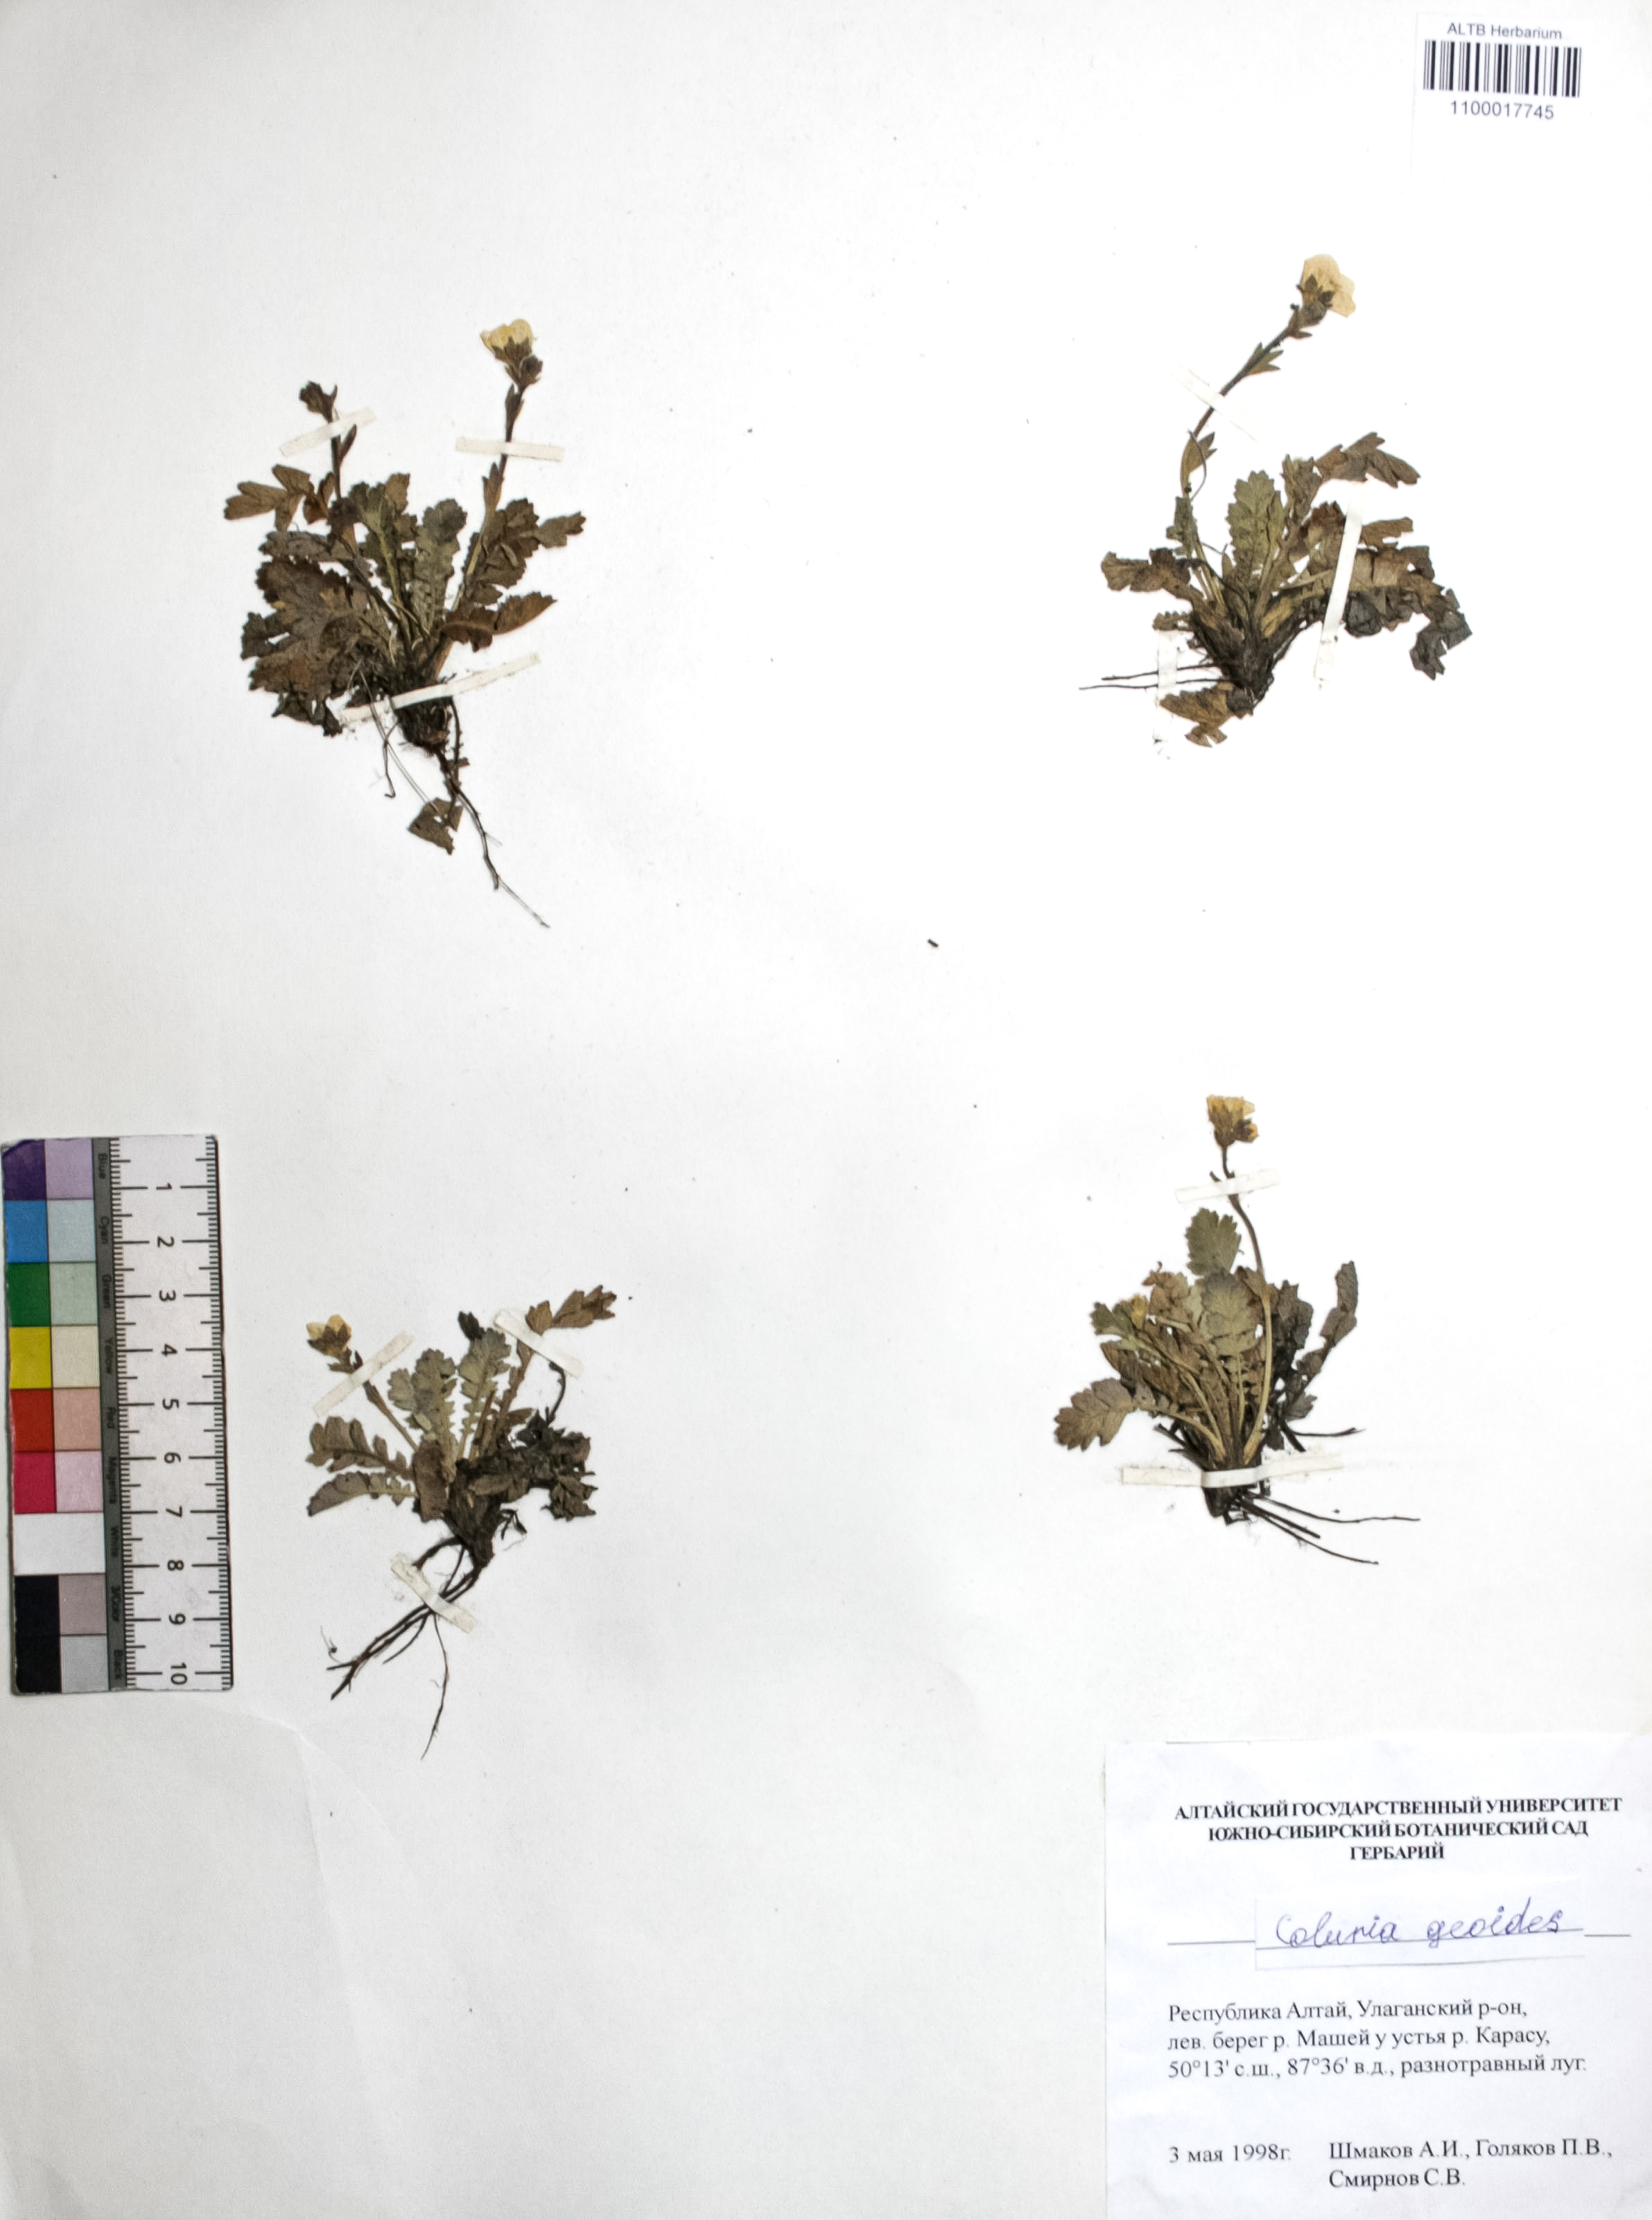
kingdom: Plantae
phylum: Tracheophyta
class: Magnoliopsida
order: Rosales
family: Rosaceae
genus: Geum
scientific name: Geum geoides
